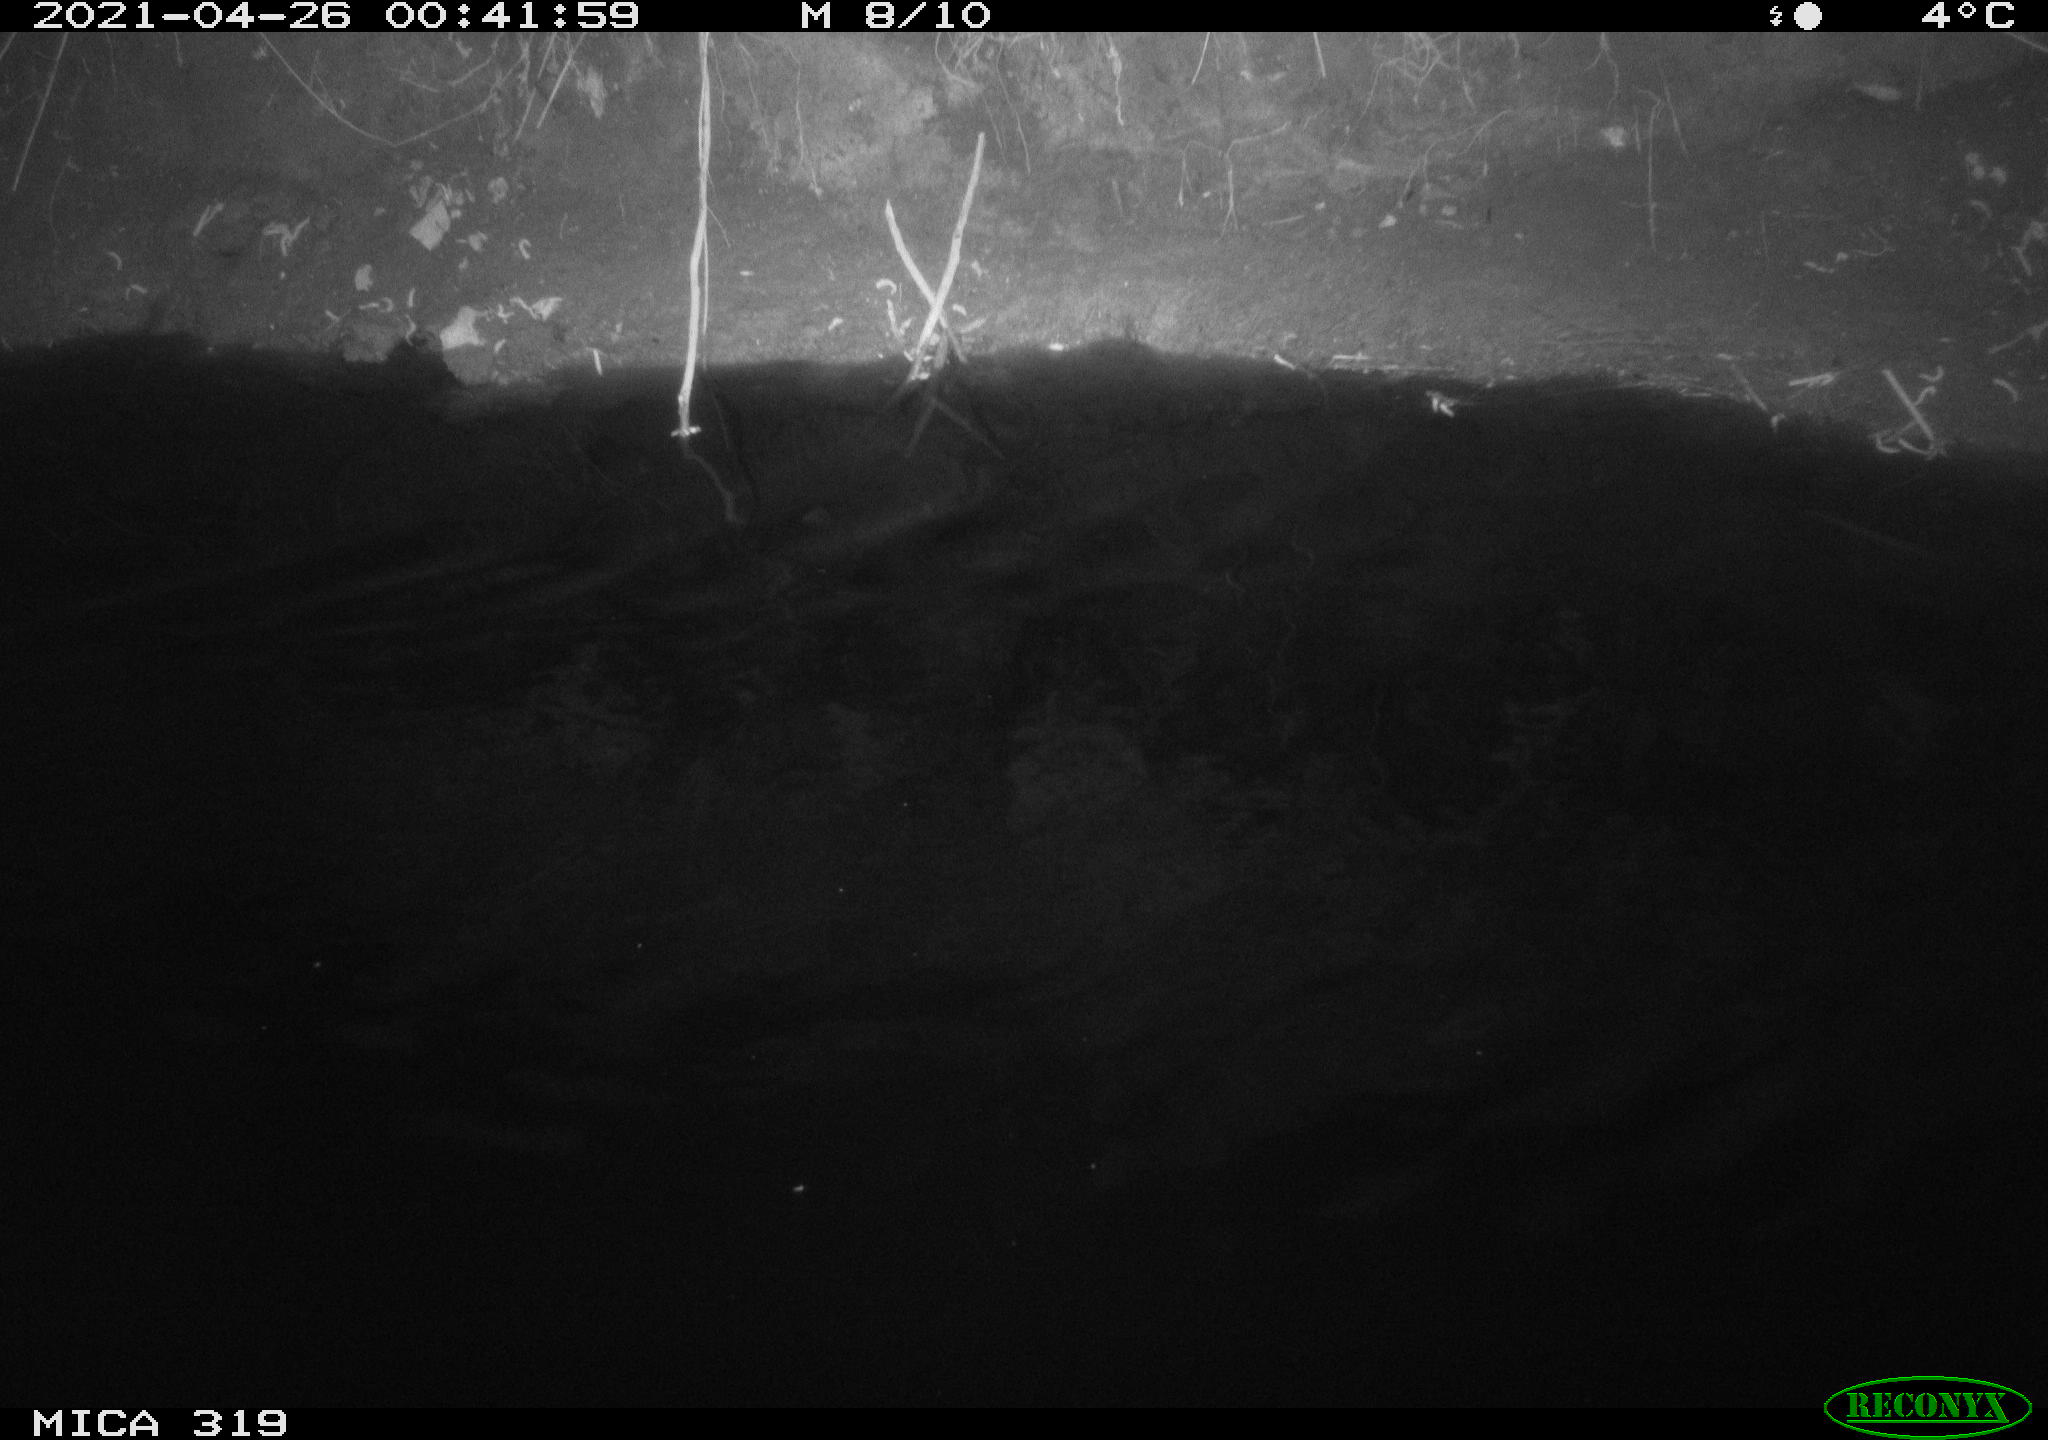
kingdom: Animalia
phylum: Chordata
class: Aves
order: Anseriformes
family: Anatidae
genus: Anas
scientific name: Anas platyrhynchos
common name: Mallard
